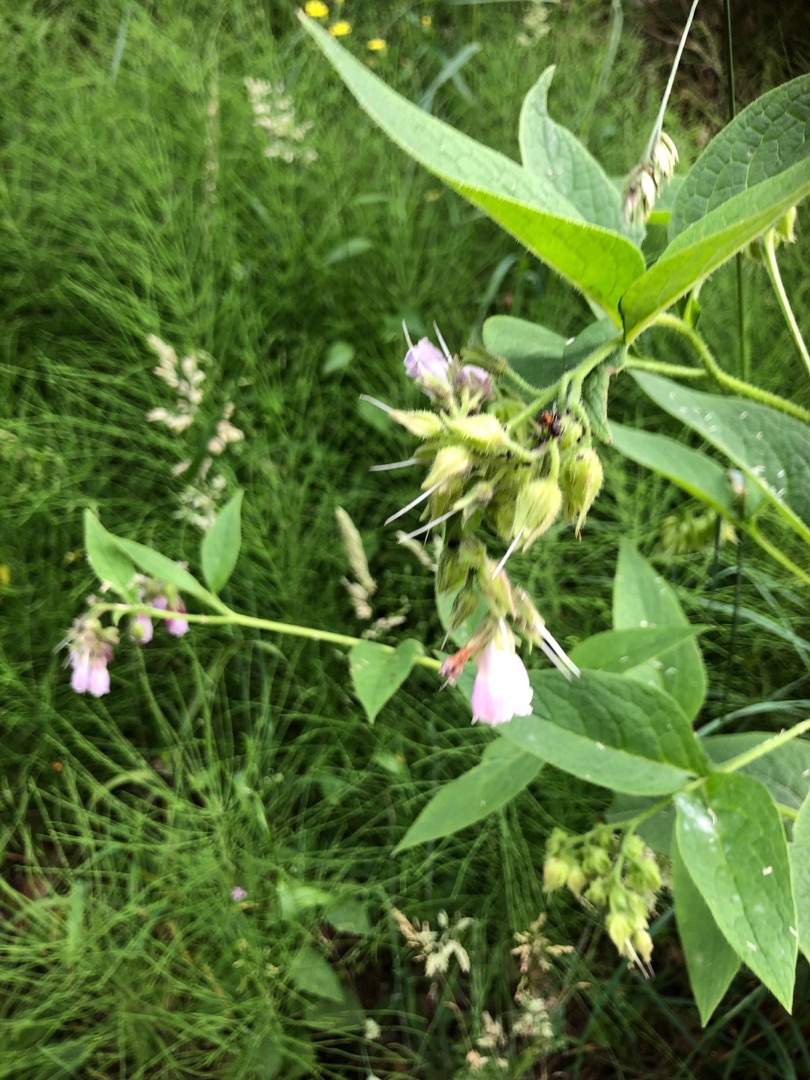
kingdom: Plantae
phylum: Tracheophyta
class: Magnoliopsida
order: Boraginales
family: Boraginaceae
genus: Symphytum
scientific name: Symphytum uplandicum
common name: Foder-kulsukker
